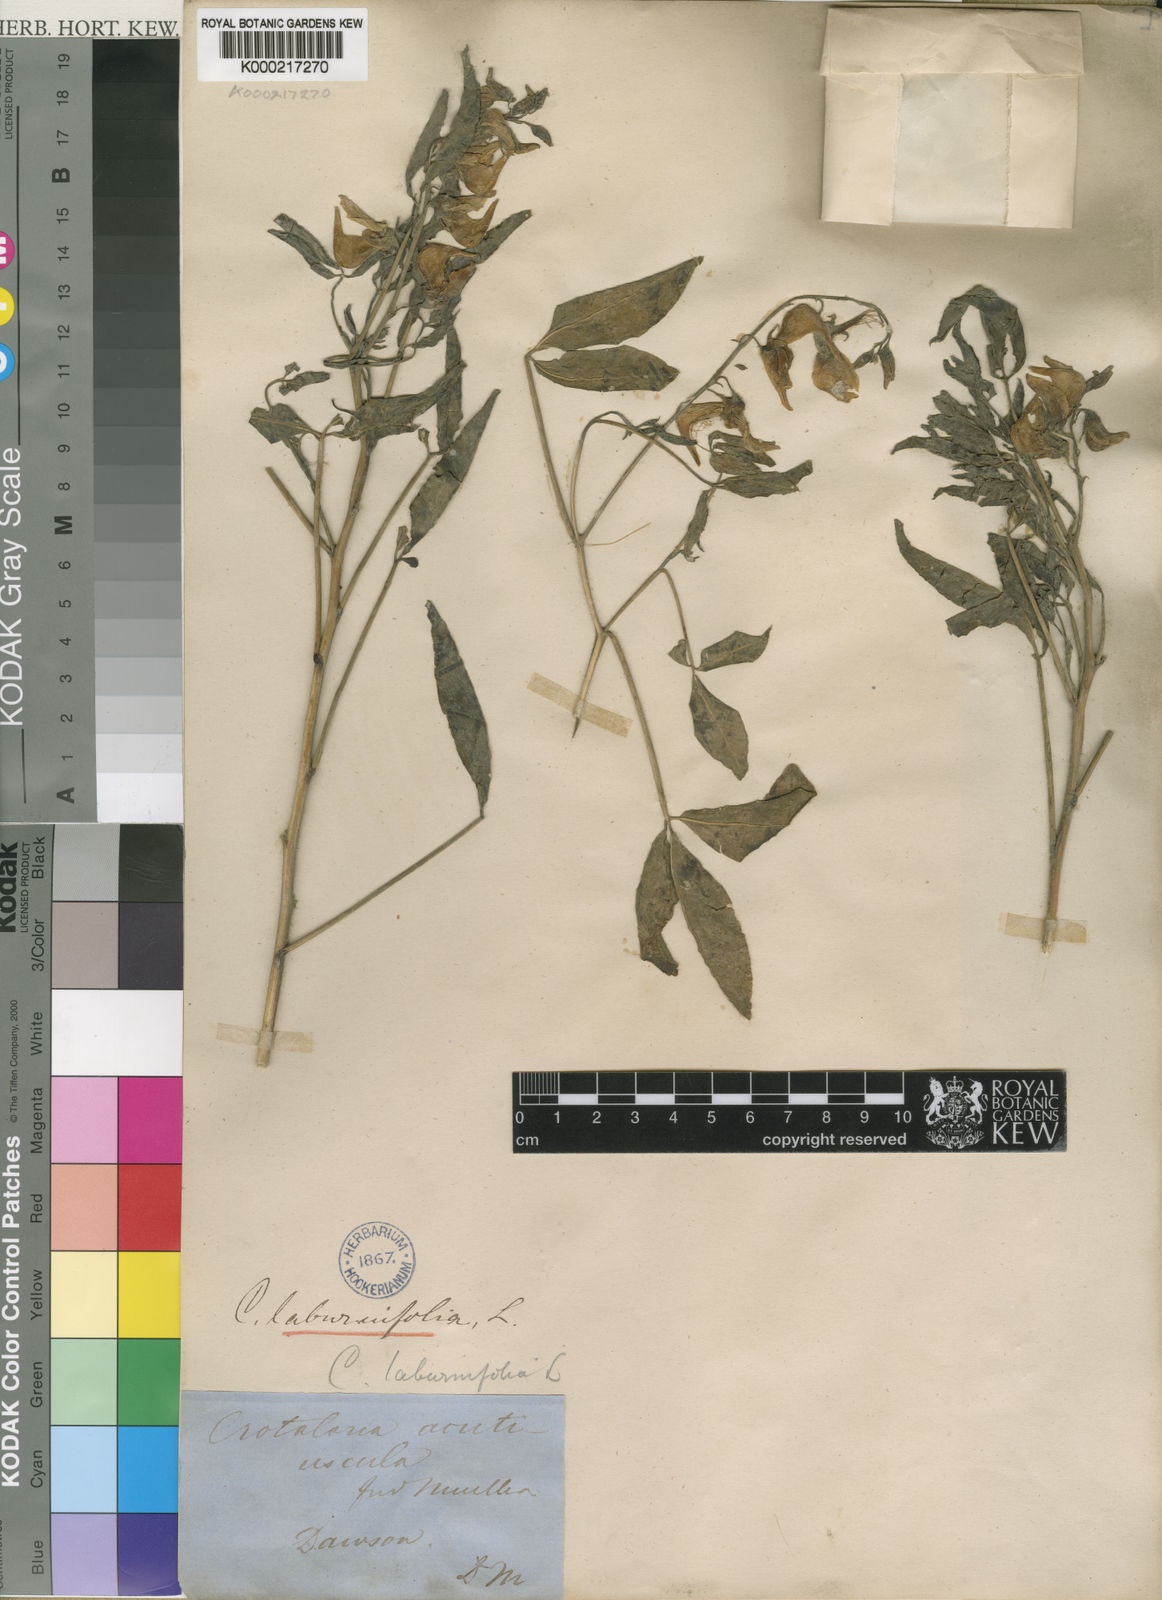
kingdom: Plantae
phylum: Tracheophyta
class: Magnoliopsida
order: Fabales
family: Fabaceae
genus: Crotalaria
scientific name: Crotalaria laburnifolia
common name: Birdflower
